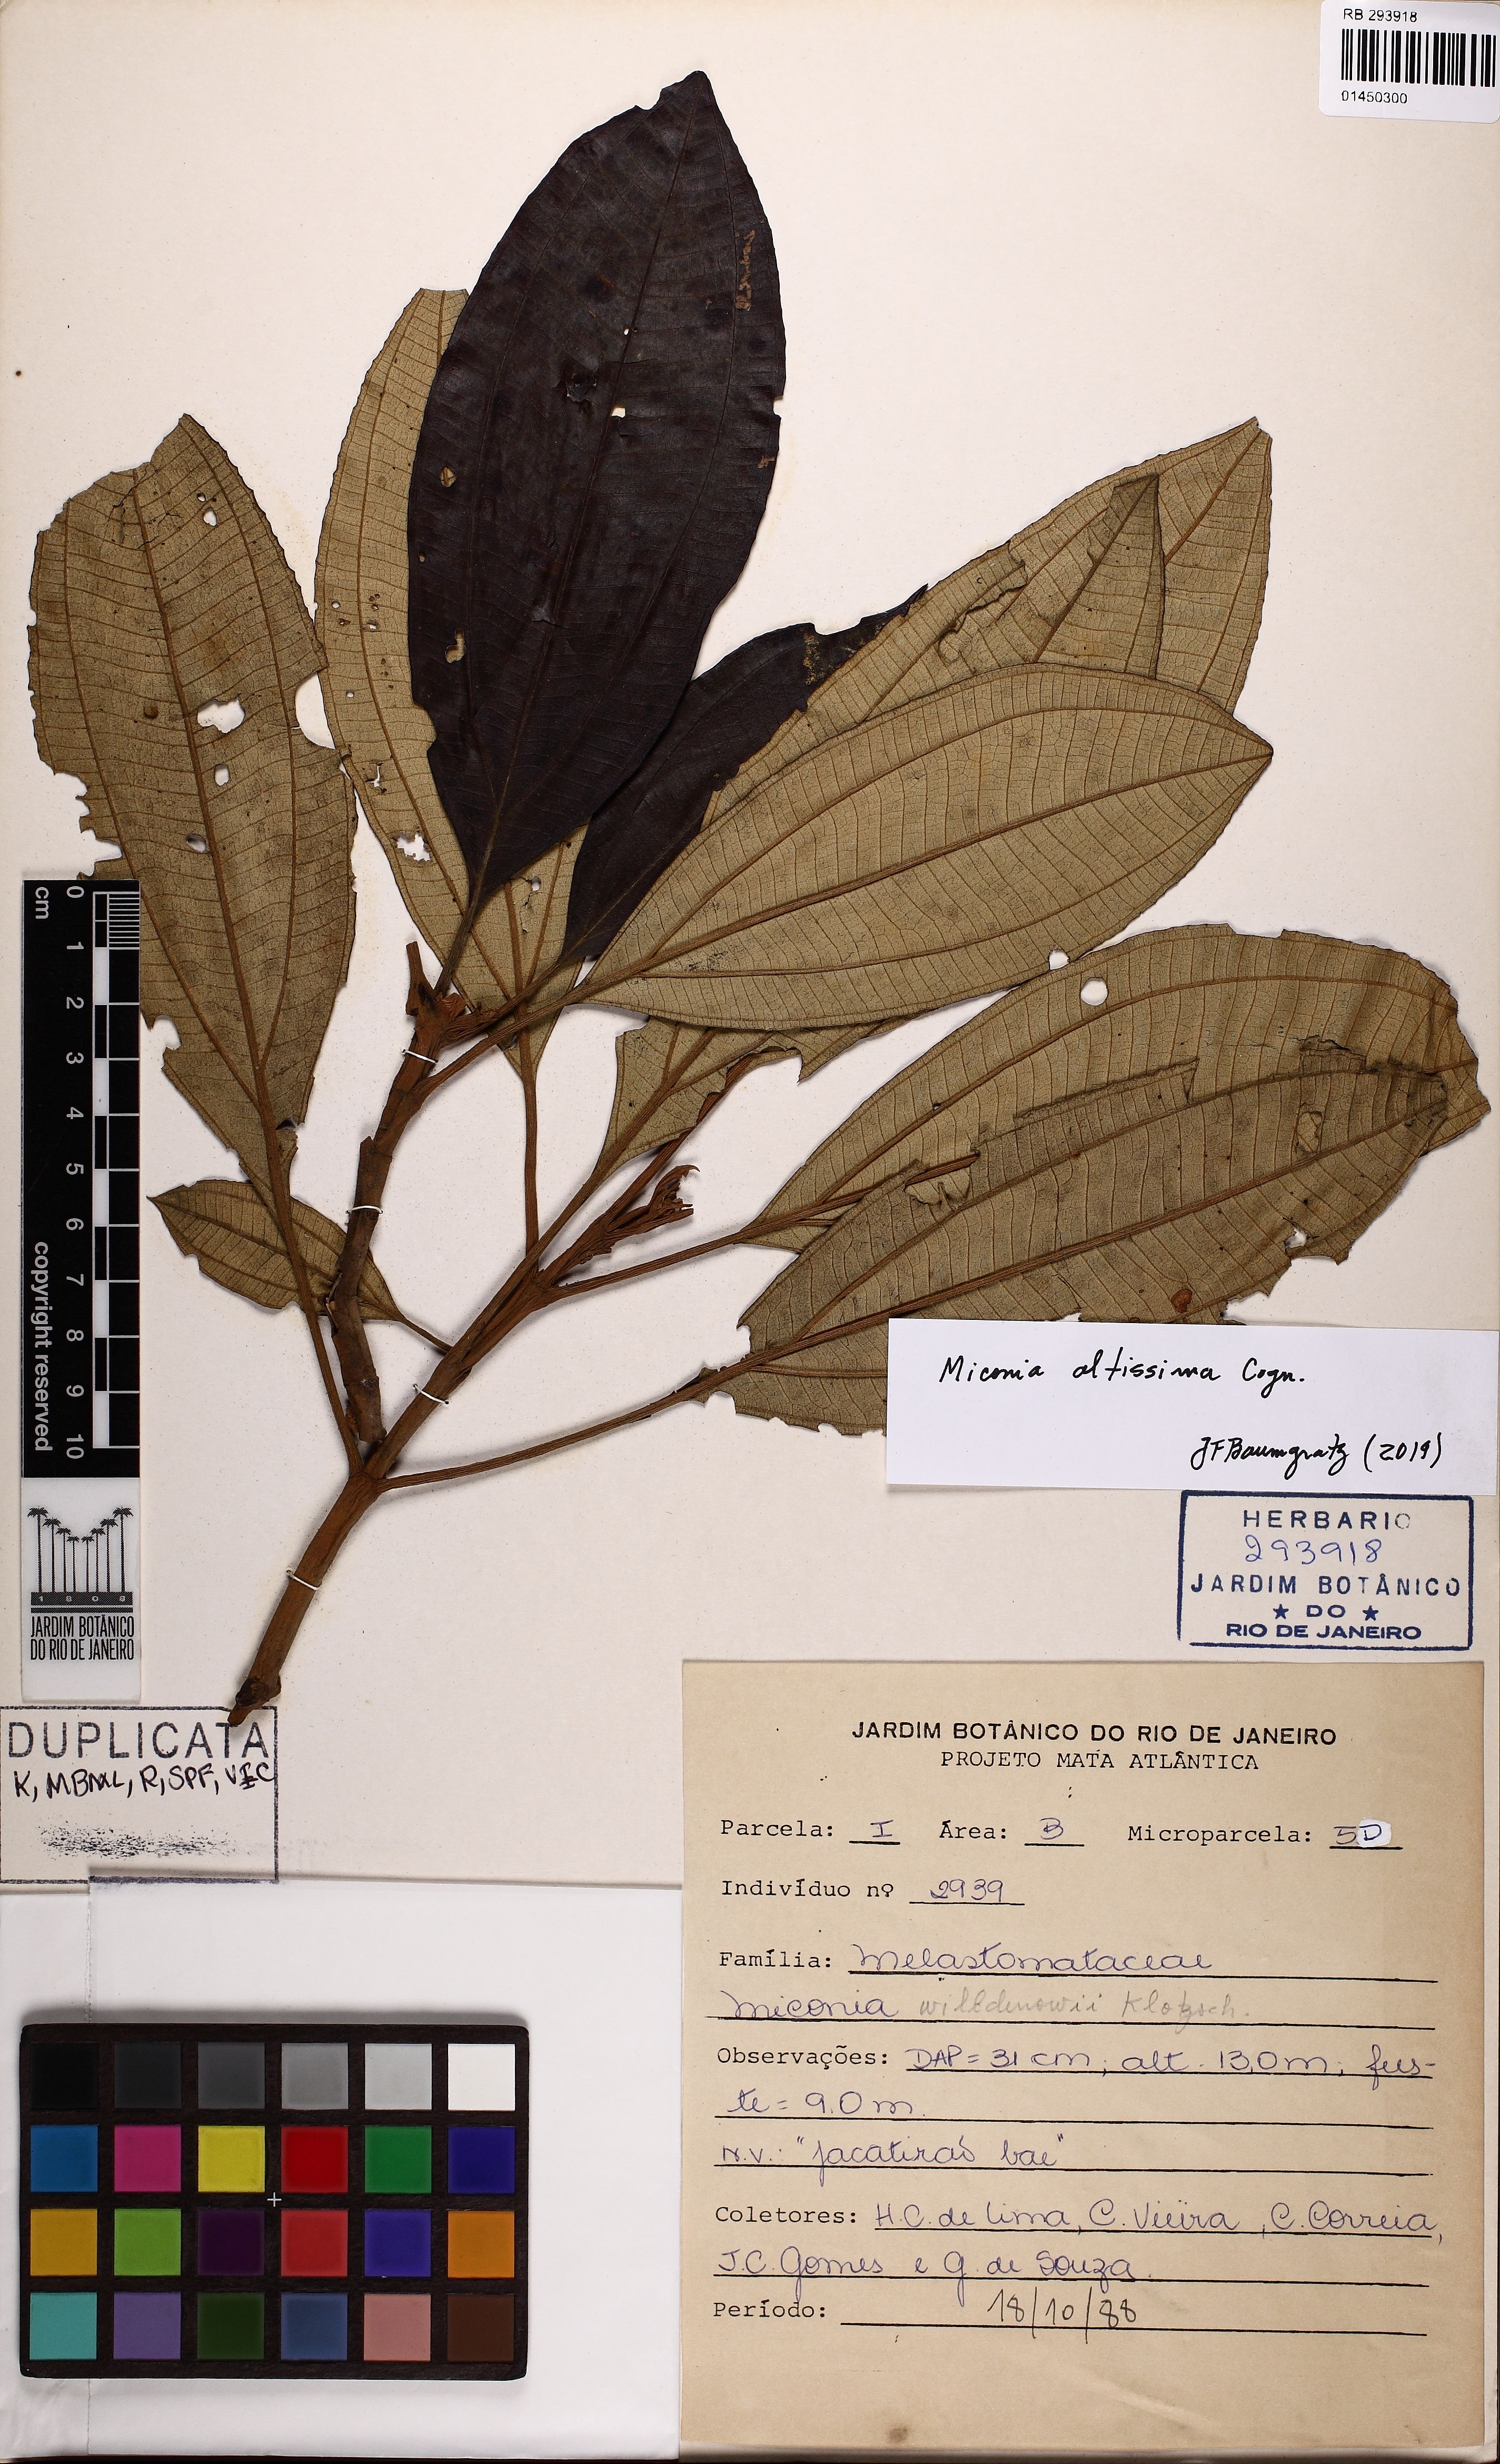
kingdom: Plantae
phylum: Tracheophyta
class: Magnoliopsida
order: Myrtales
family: Melastomataceae
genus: Miconia
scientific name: Miconia formosa
